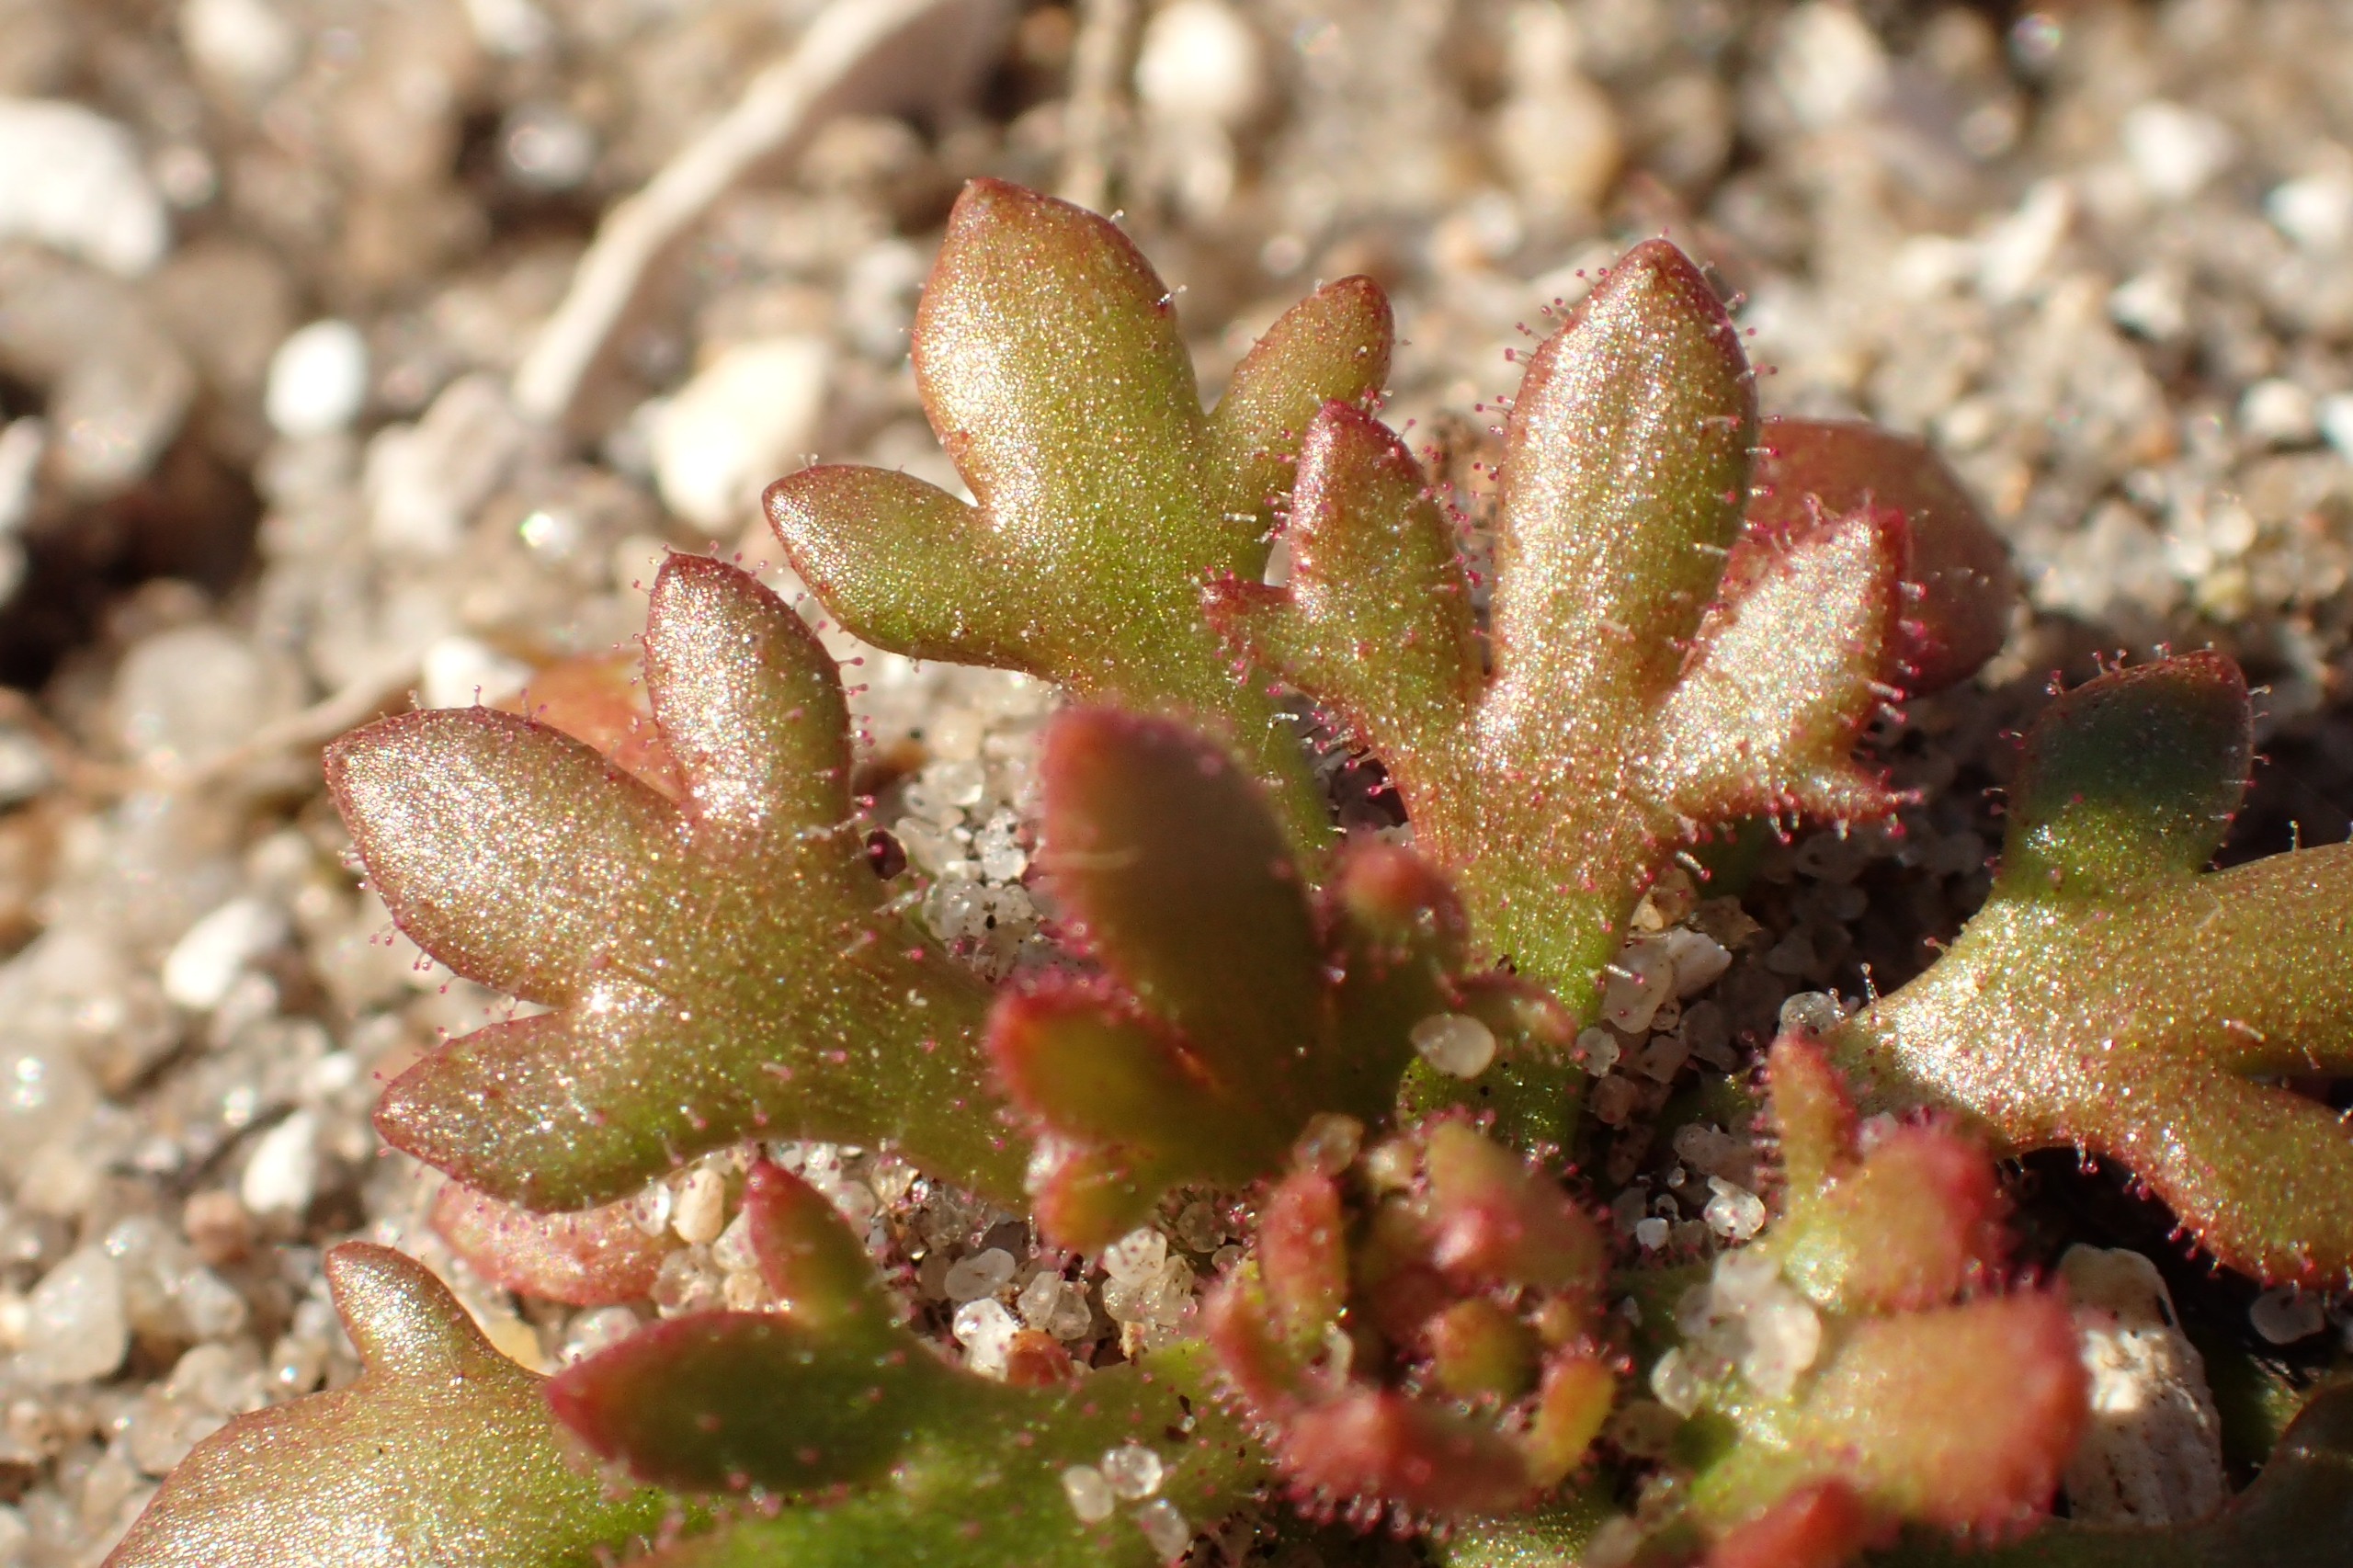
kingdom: Plantae
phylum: Tracheophyta
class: Magnoliopsida
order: Saxifragales
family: Saxifragaceae
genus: Saxifraga
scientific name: Saxifraga tridactylites
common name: Trekløft-stenbræk
